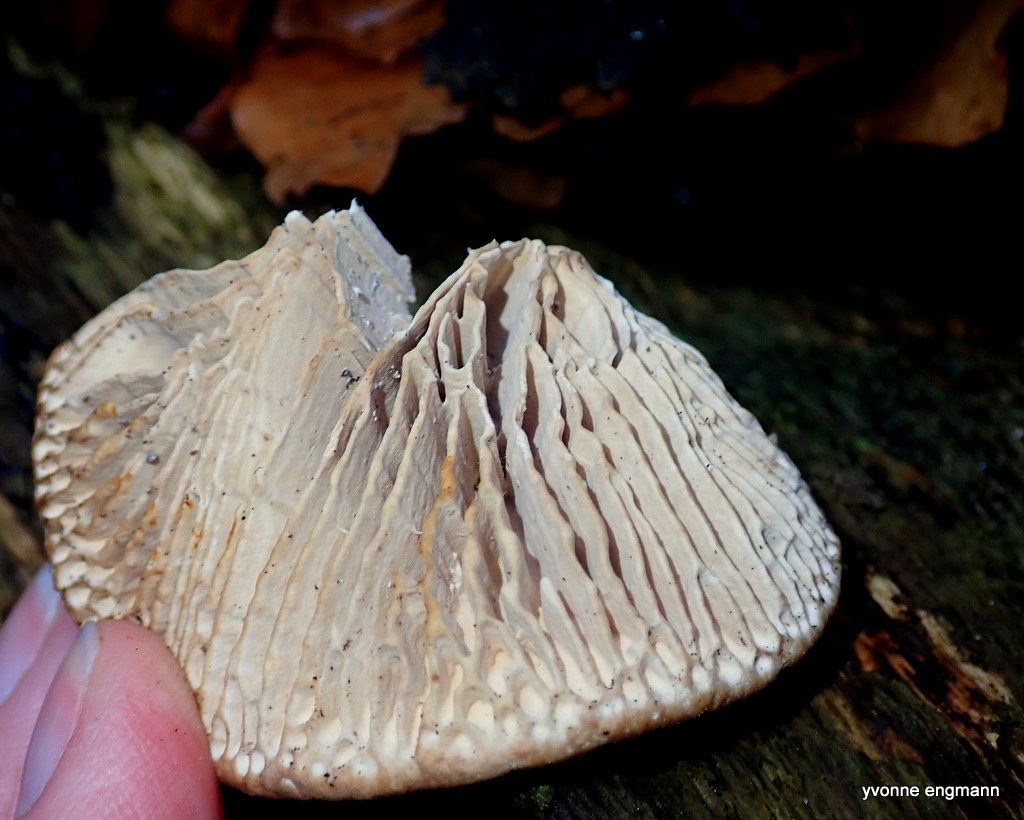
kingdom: Fungi
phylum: Basidiomycota
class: Agaricomycetes
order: Polyporales
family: Fomitopsidaceae
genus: Daedalea
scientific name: Daedalea quercina
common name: ege-labyrintsvamp
